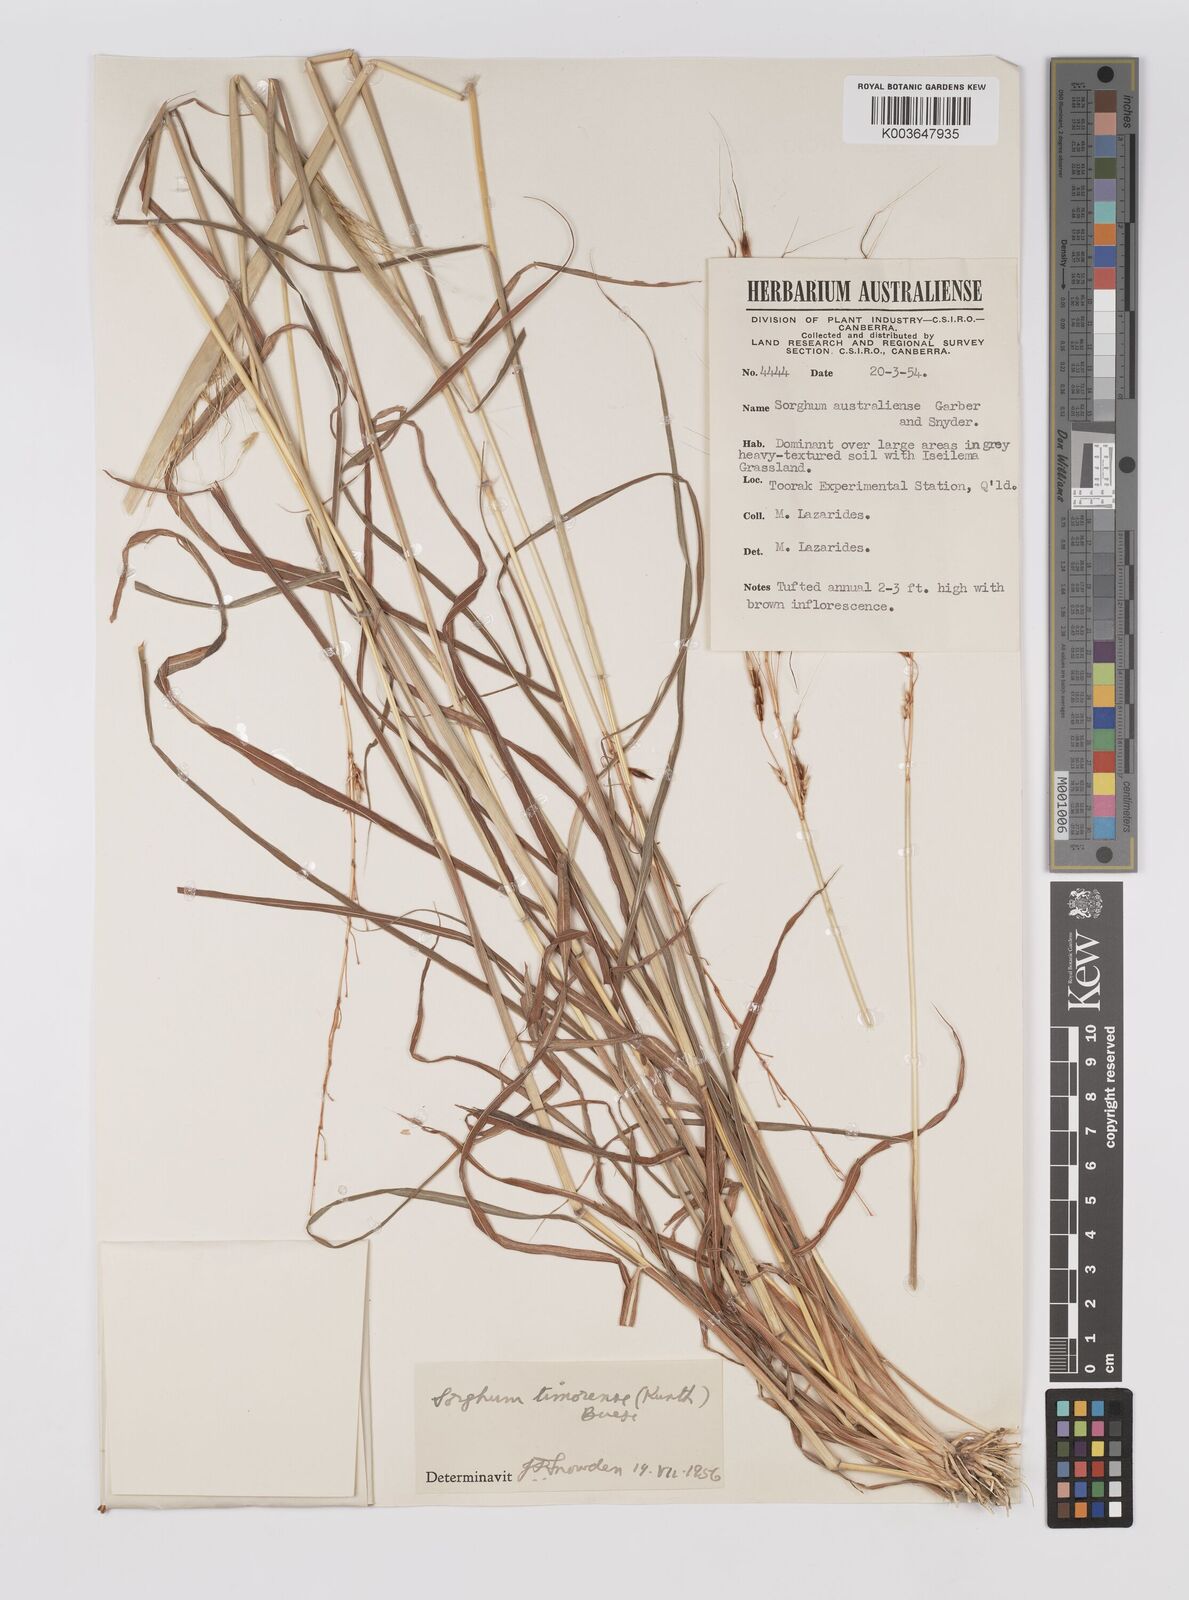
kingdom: Plantae
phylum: Tracheophyta
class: Liliopsida
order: Poales
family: Poaceae
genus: Sarga
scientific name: Sarga timorensis
